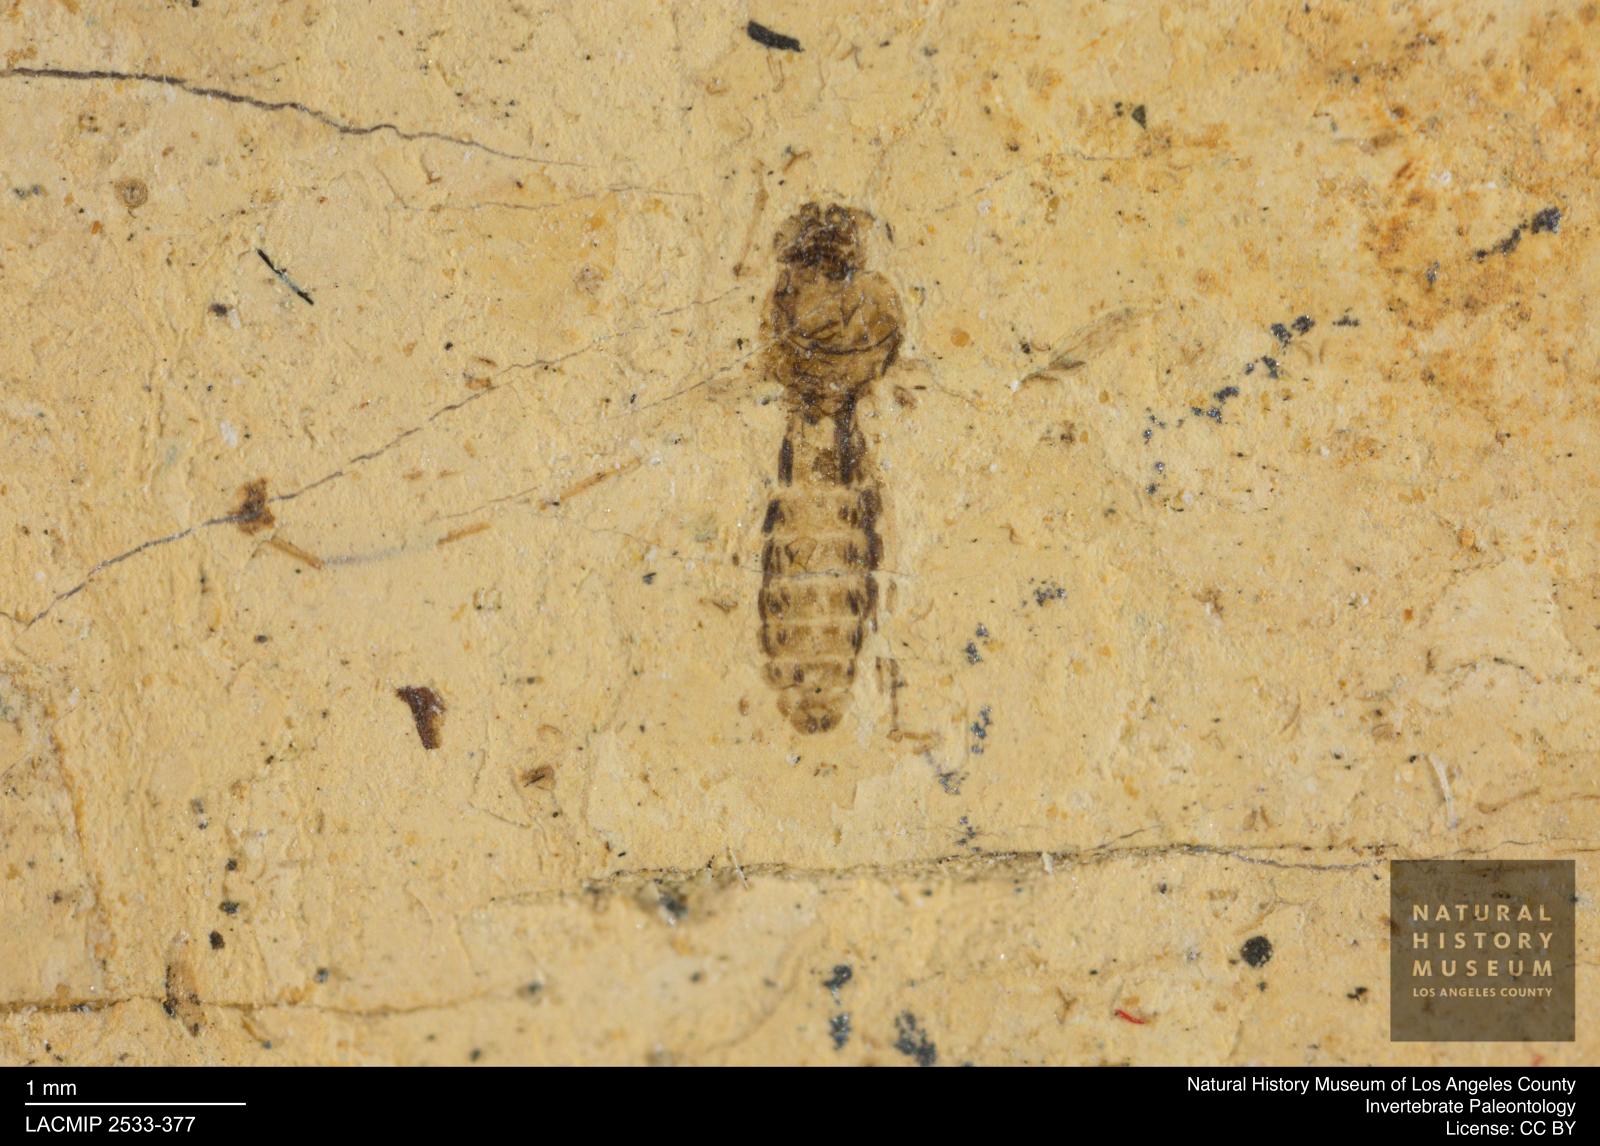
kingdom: Animalia
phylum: Arthropoda
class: Insecta
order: Diptera
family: Ceratopogonidae
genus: Culicoides
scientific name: Culicoides jucundus
